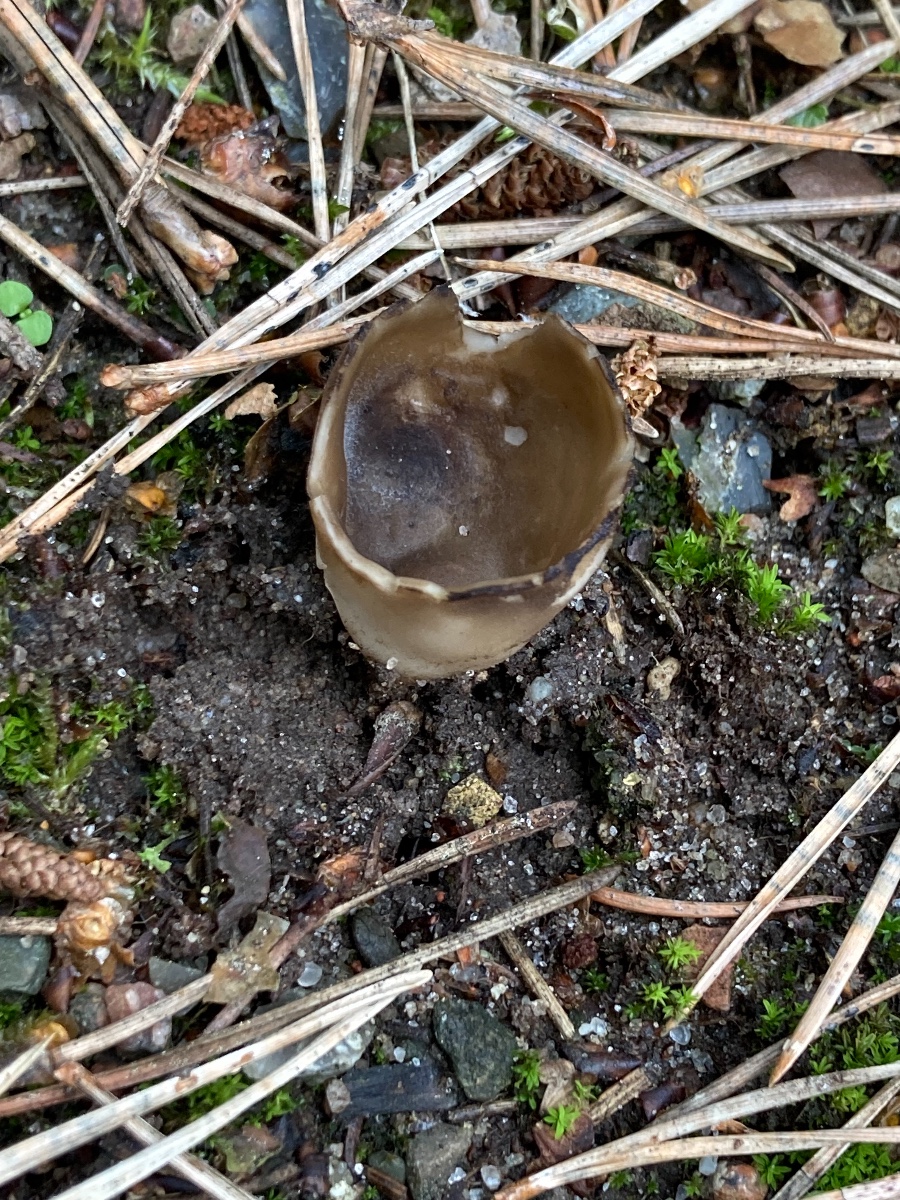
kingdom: Fungi
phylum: Ascomycota
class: Pezizomycetes
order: Pezizales
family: Helvellaceae
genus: Dissingia
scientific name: Dissingia leucomelaena
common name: sorthvid foldhat
